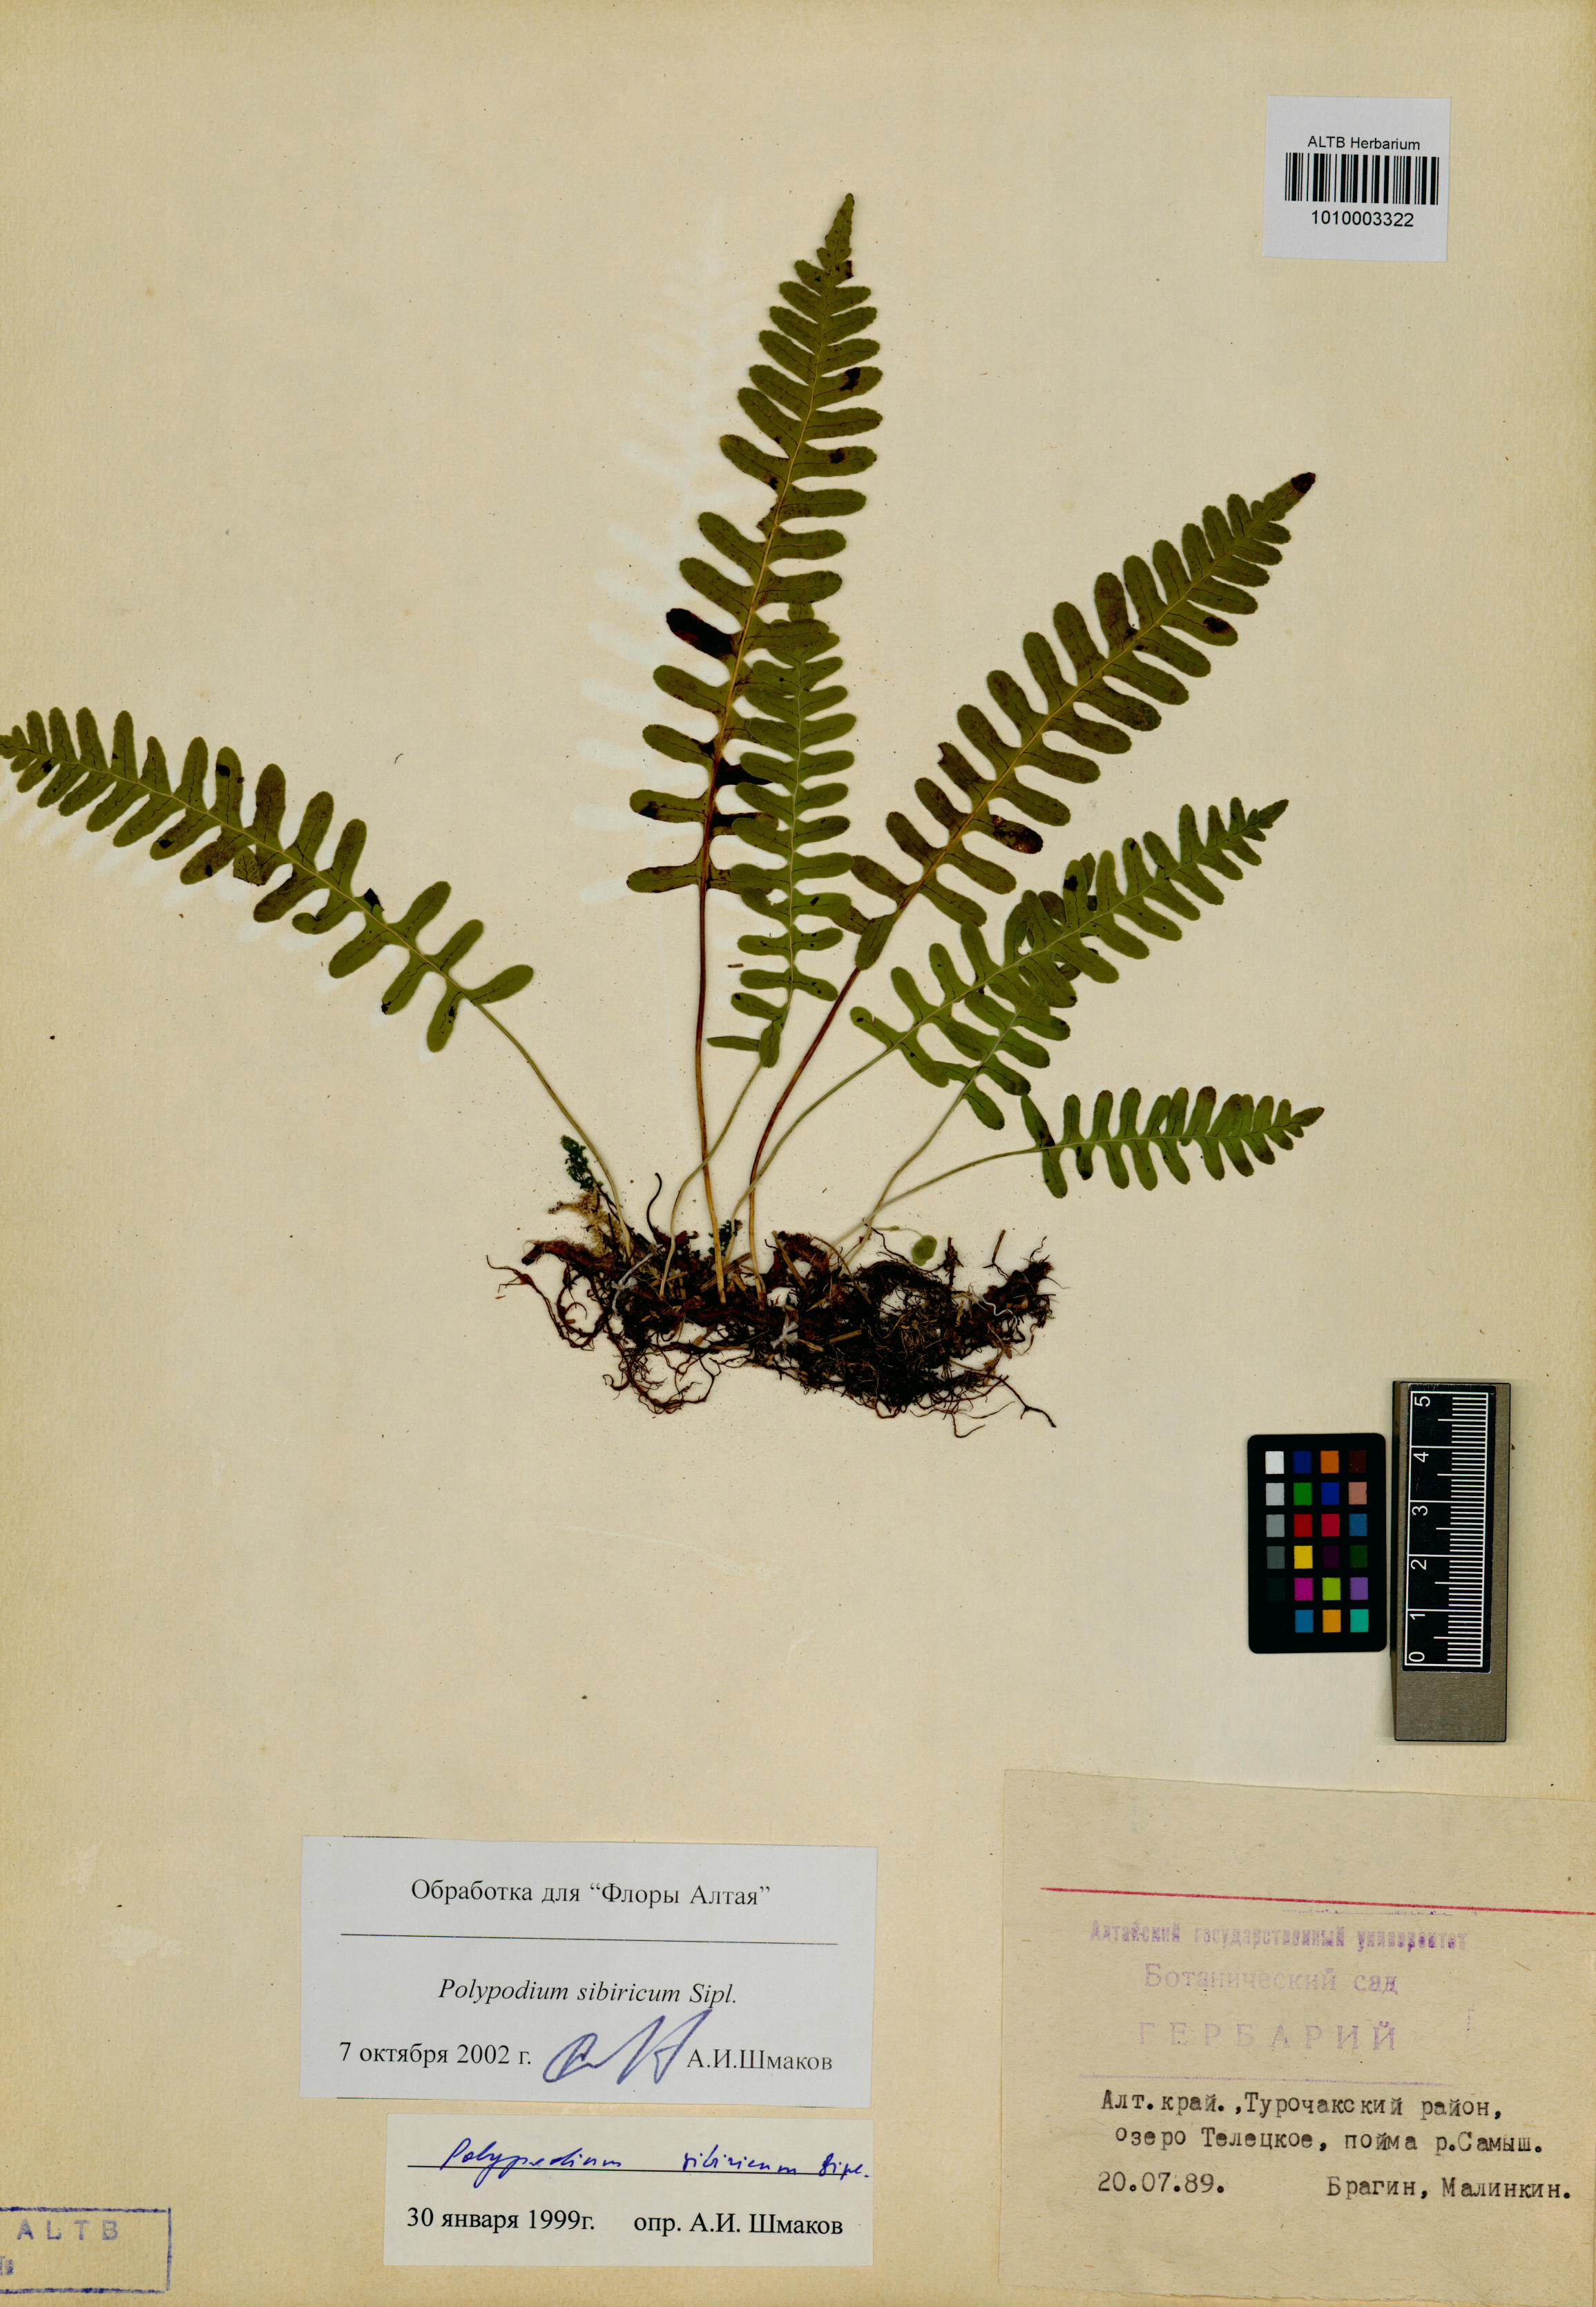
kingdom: Plantae
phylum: Tracheophyta
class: Polypodiopsida
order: Polypodiales
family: Polypodiaceae
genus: Polypodium
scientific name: Polypodium sibiricum
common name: Siberian polypody
